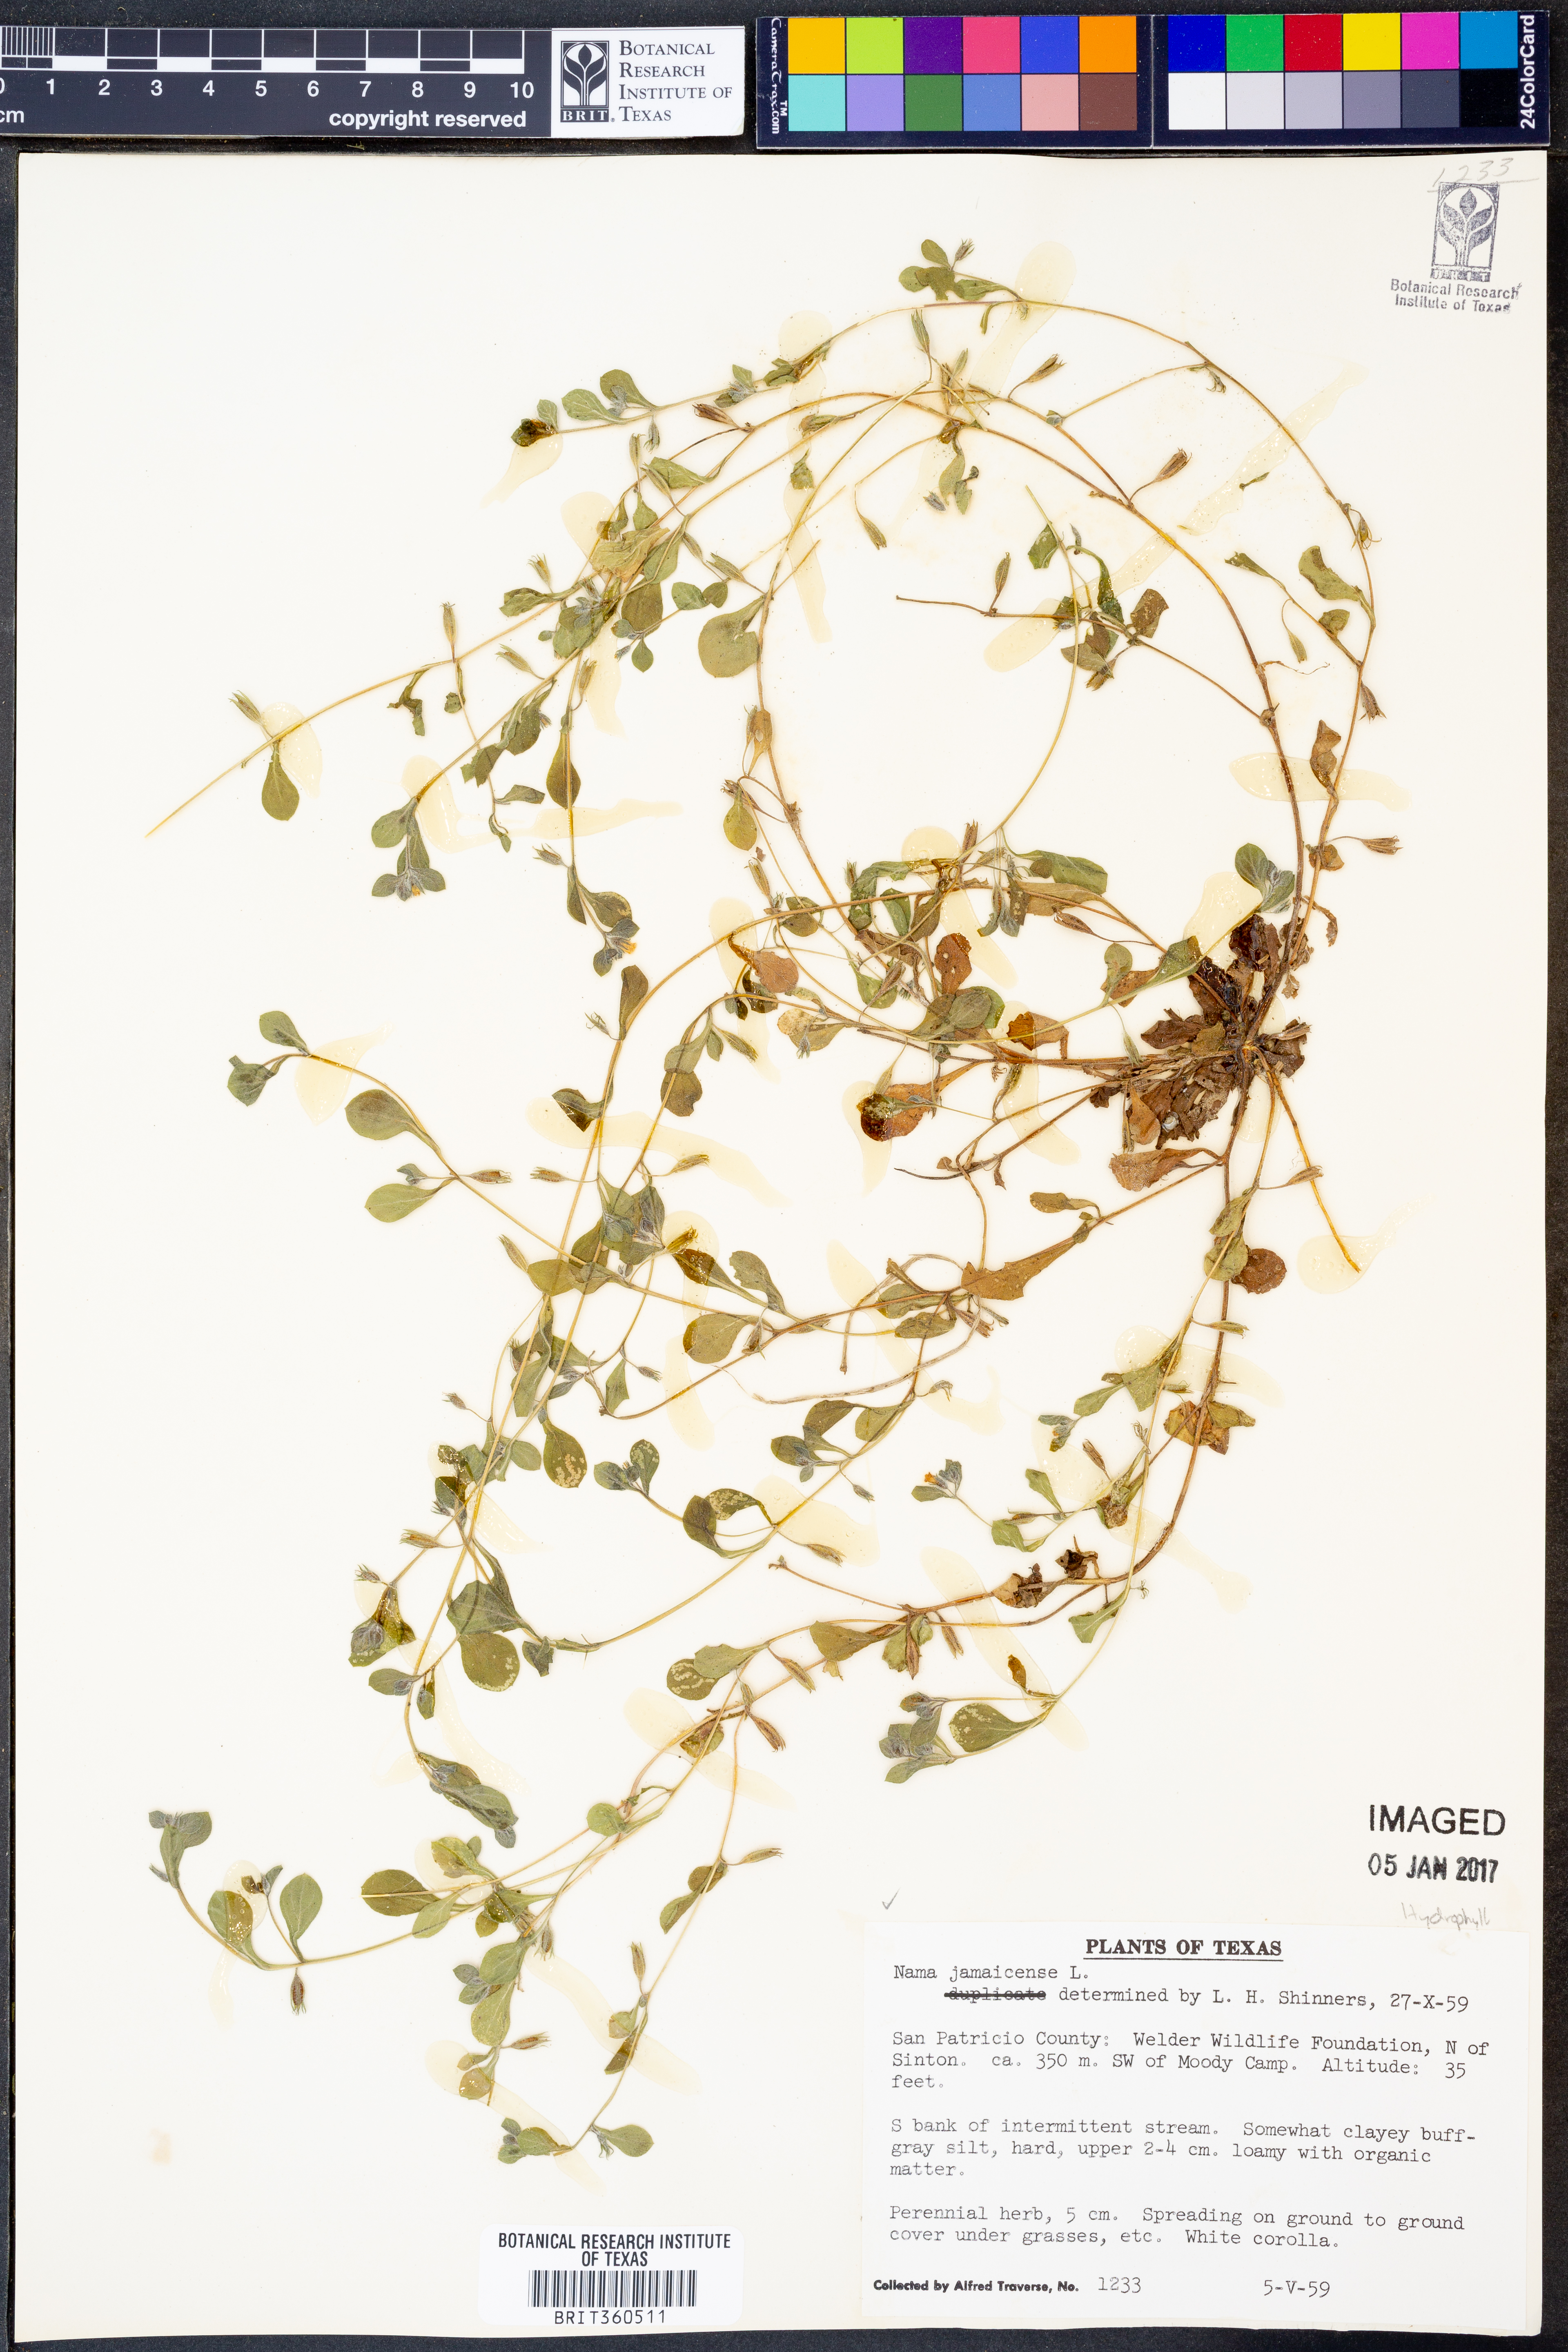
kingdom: Plantae
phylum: Tracheophyta
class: Magnoliopsida
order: Boraginales
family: Namaceae
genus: Nama
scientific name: Nama jamaicense
